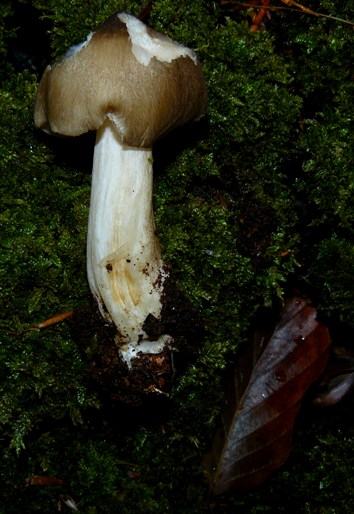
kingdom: Fungi
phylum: Basidiomycota
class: Agaricomycetes
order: Agaricales
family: Tricholomataceae
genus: Megacollybia
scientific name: Megacollybia platyphylla
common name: bredbladet væbnerhat
